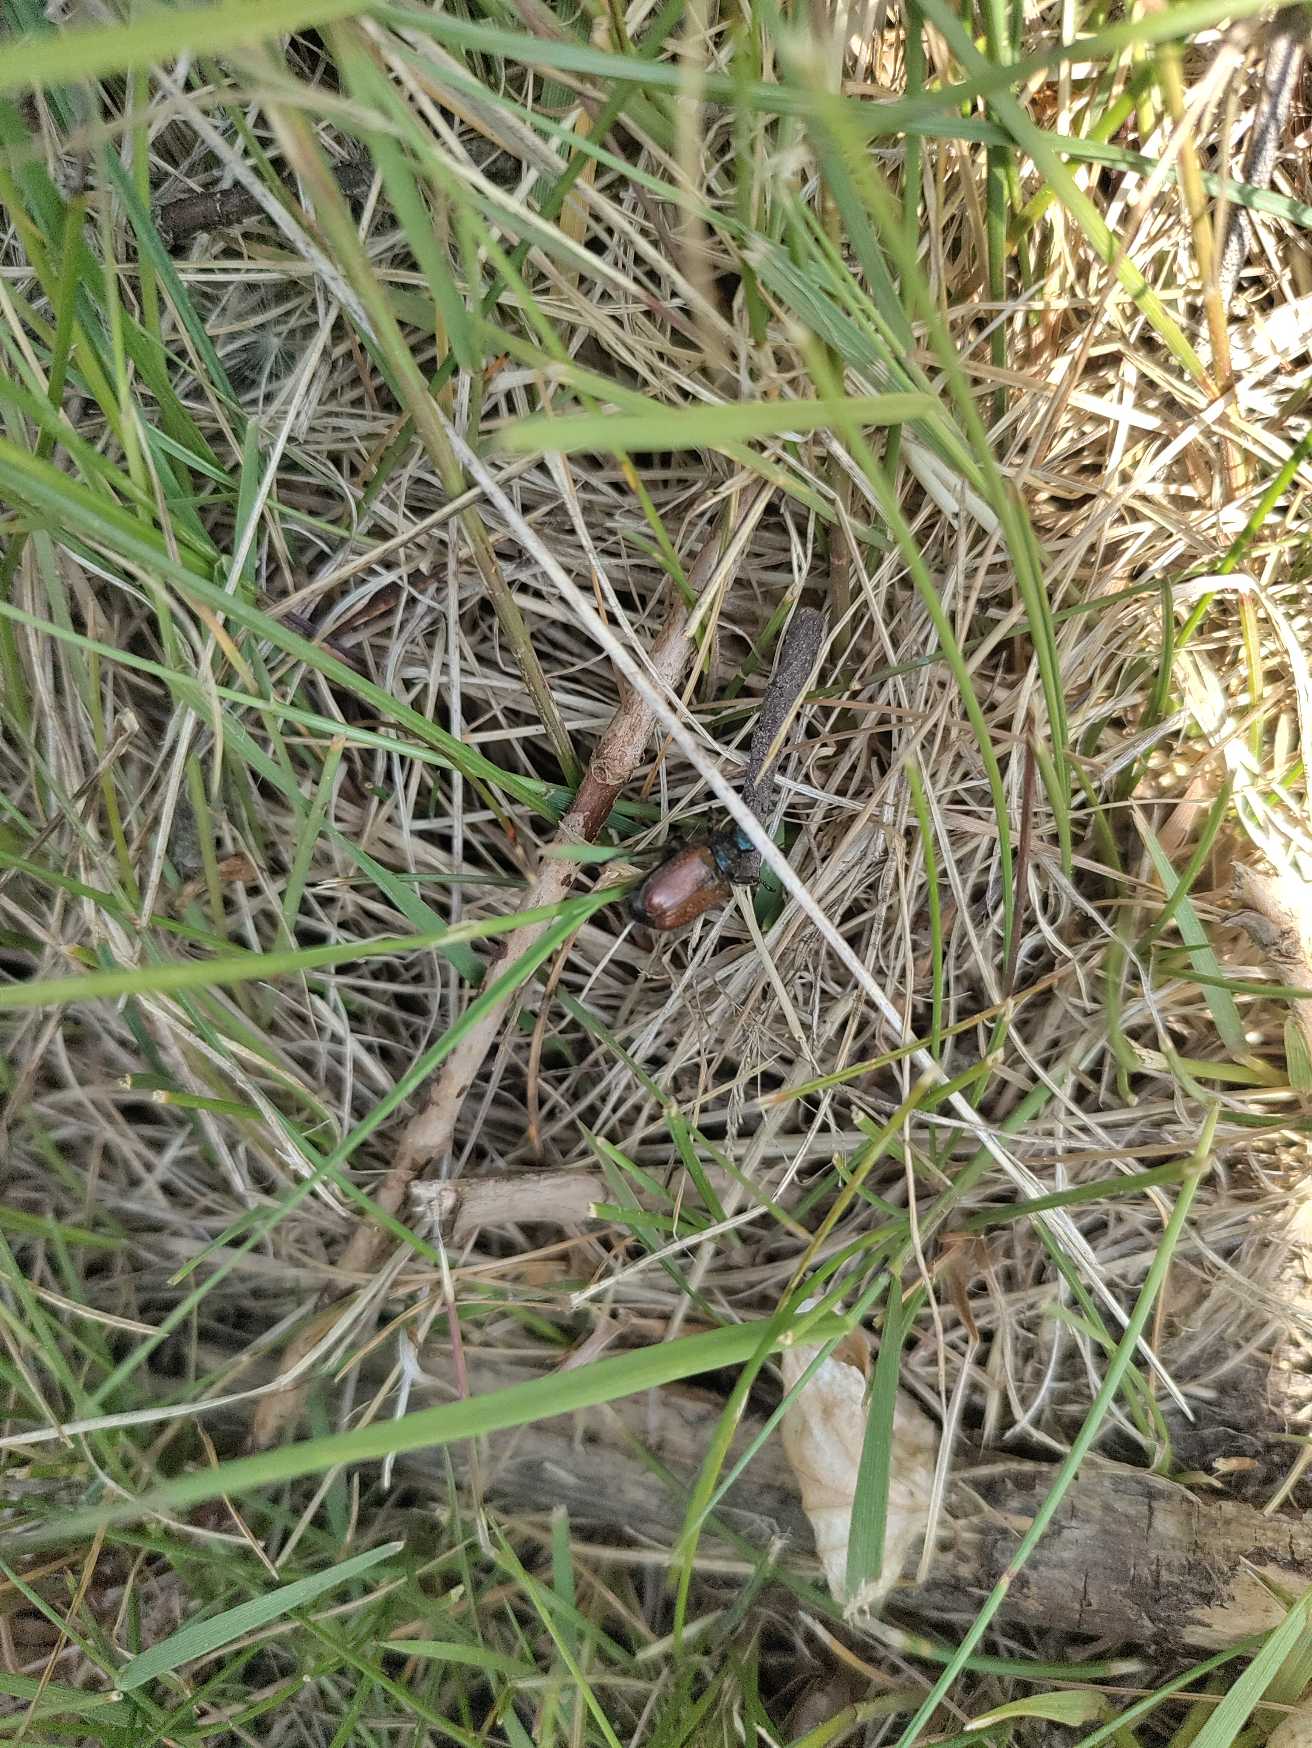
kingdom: Animalia
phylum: Arthropoda
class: Insecta
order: Coleoptera
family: Scarabaeidae
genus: Phyllopertha
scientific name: Phyllopertha horticola
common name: Gåsebille
